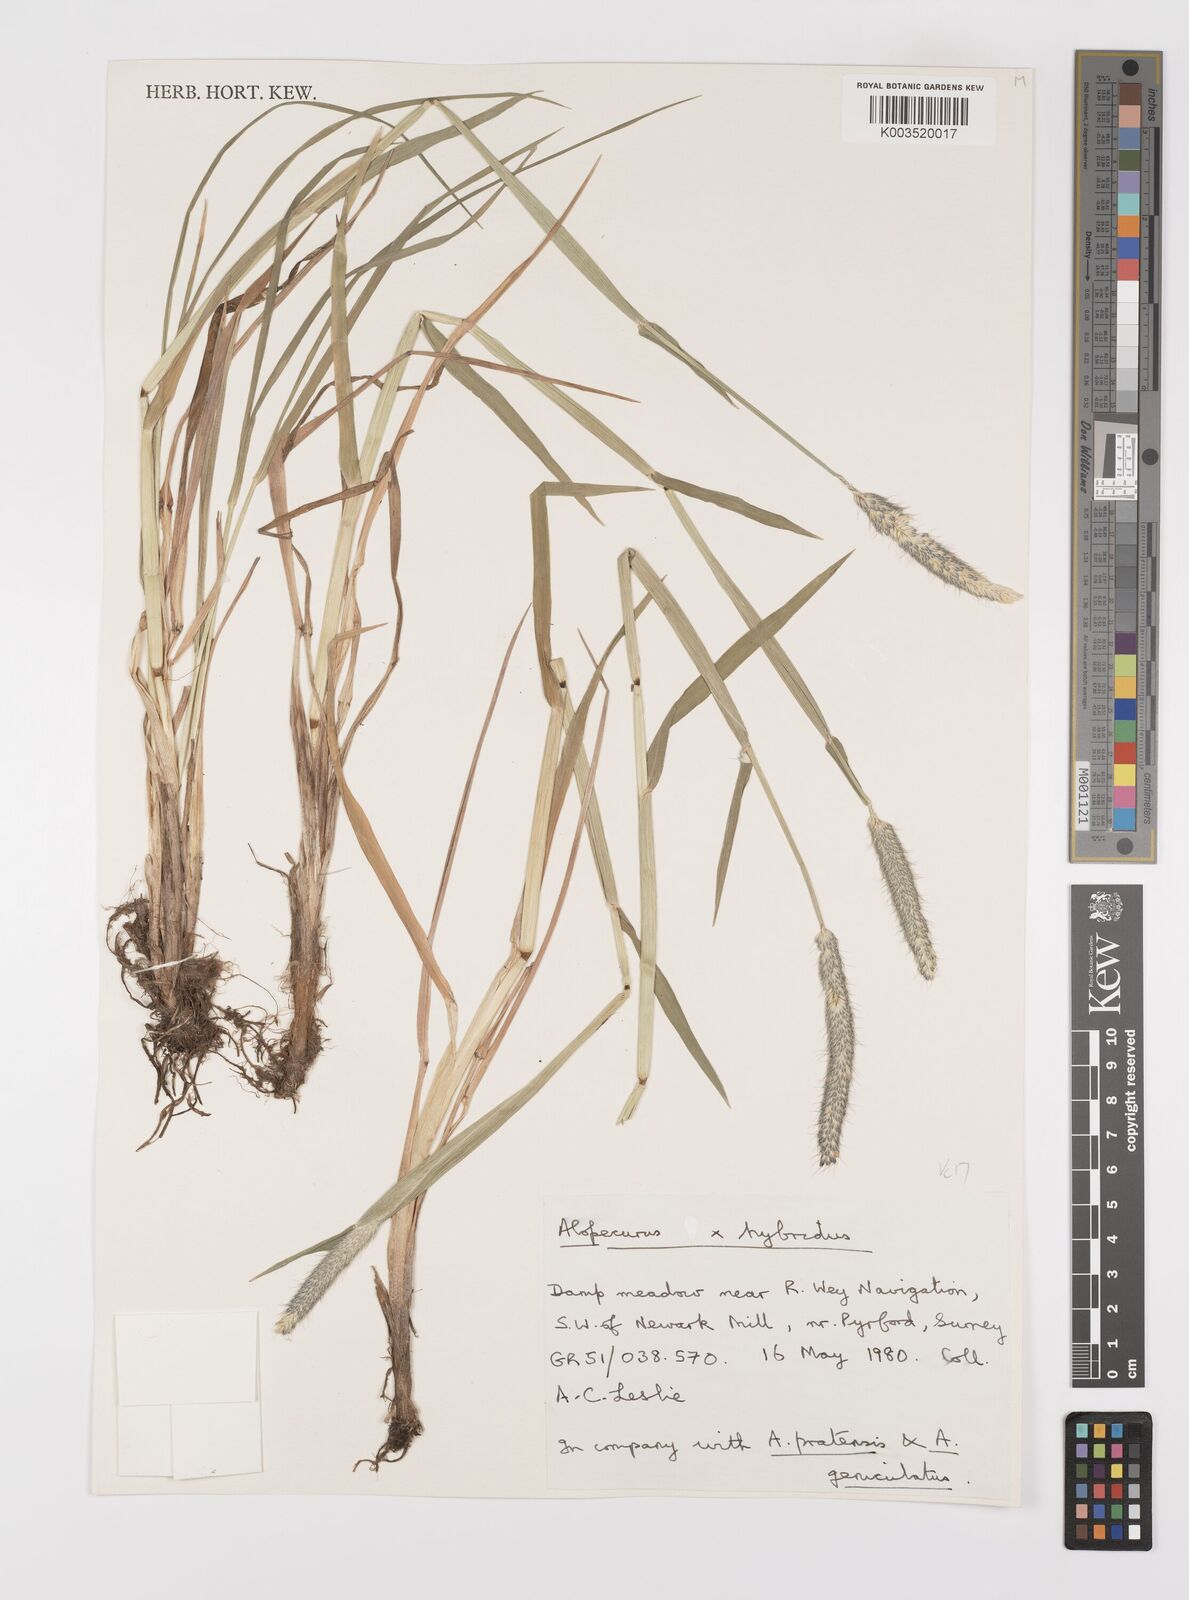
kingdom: Plantae
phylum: Tracheophyta
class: Liliopsida
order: Poales
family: Poaceae
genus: Alopecurus
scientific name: Alopecurus brachystylus
